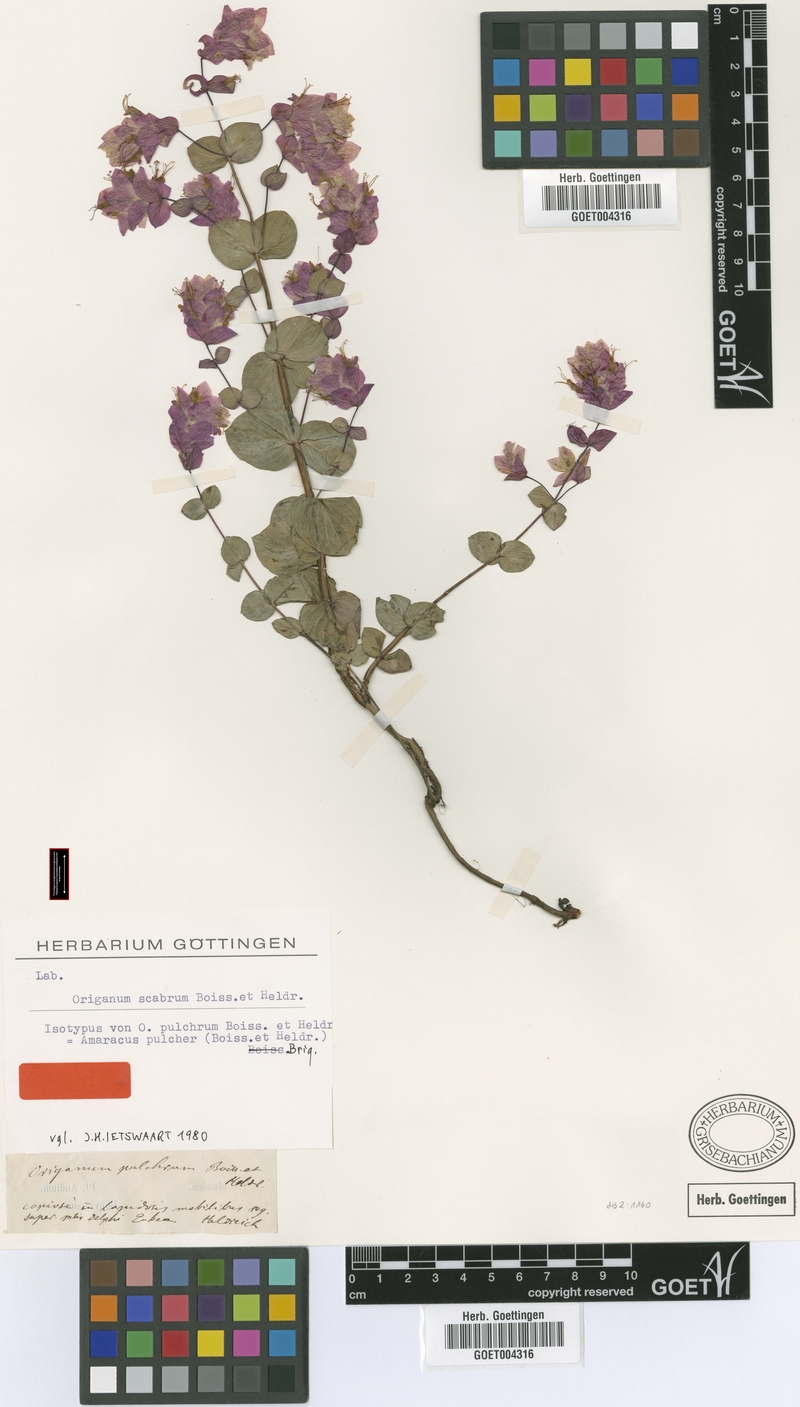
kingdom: Plantae
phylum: Tracheophyta
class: Magnoliopsida
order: Lamiales
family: Lamiaceae
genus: Origanum
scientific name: Origanum scabrum
